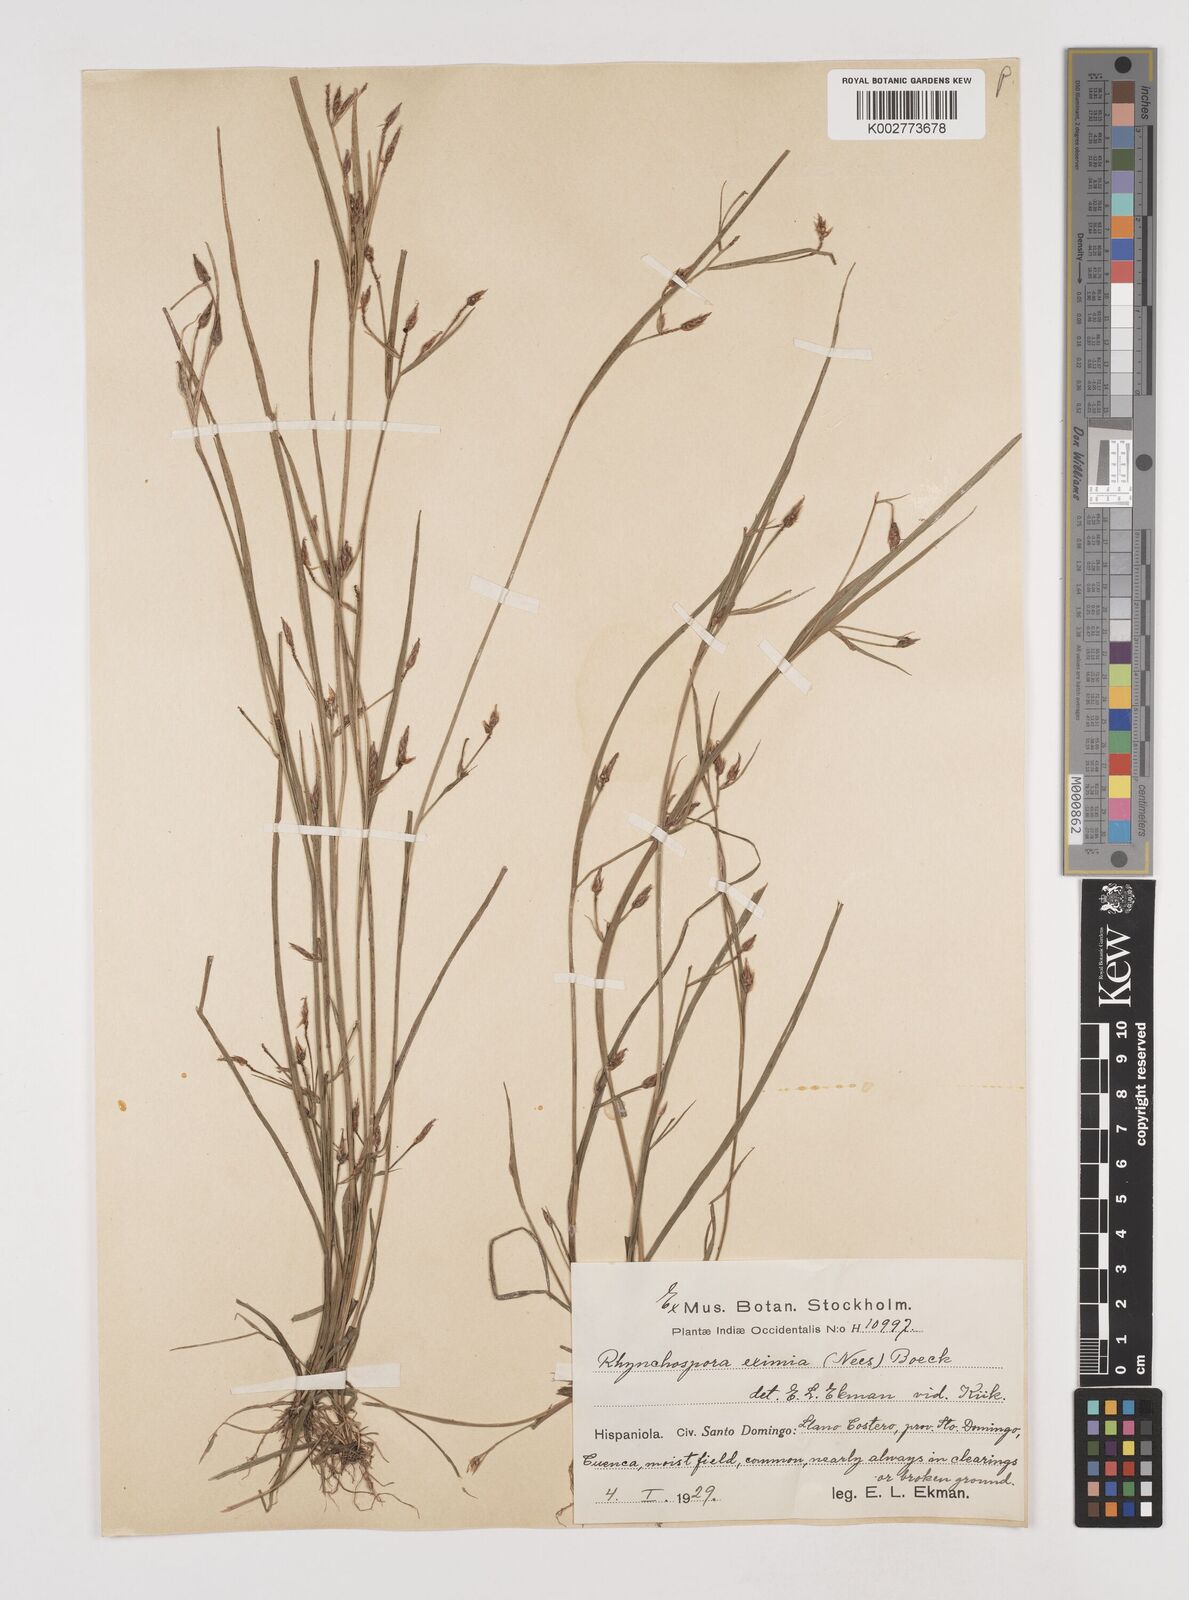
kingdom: Plantae
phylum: Tracheophyta
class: Liliopsida
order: Poales
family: Cyperaceae
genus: Rhynchospora
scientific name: Rhynchospora eximia
